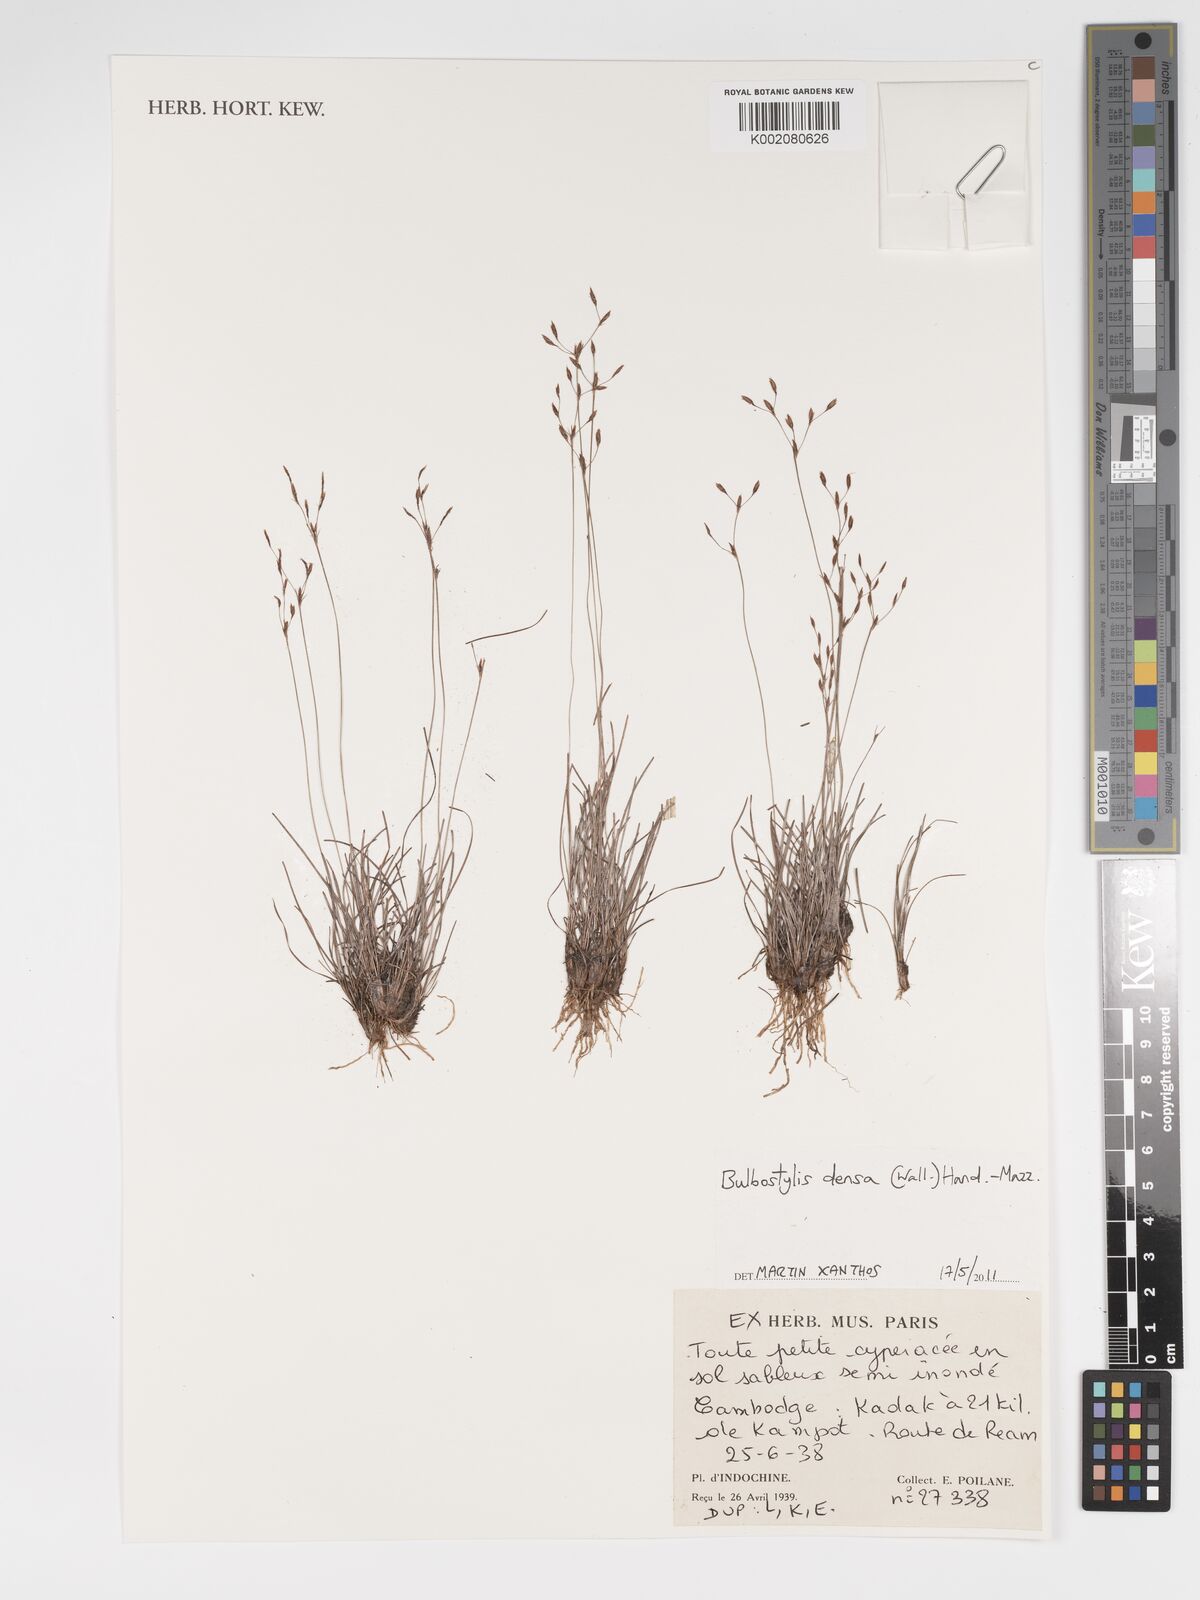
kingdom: Plantae
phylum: Tracheophyta
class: Liliopsida
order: Poales
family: Cyperaceae
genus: Bulbostylis
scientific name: Bulbostylis densa
